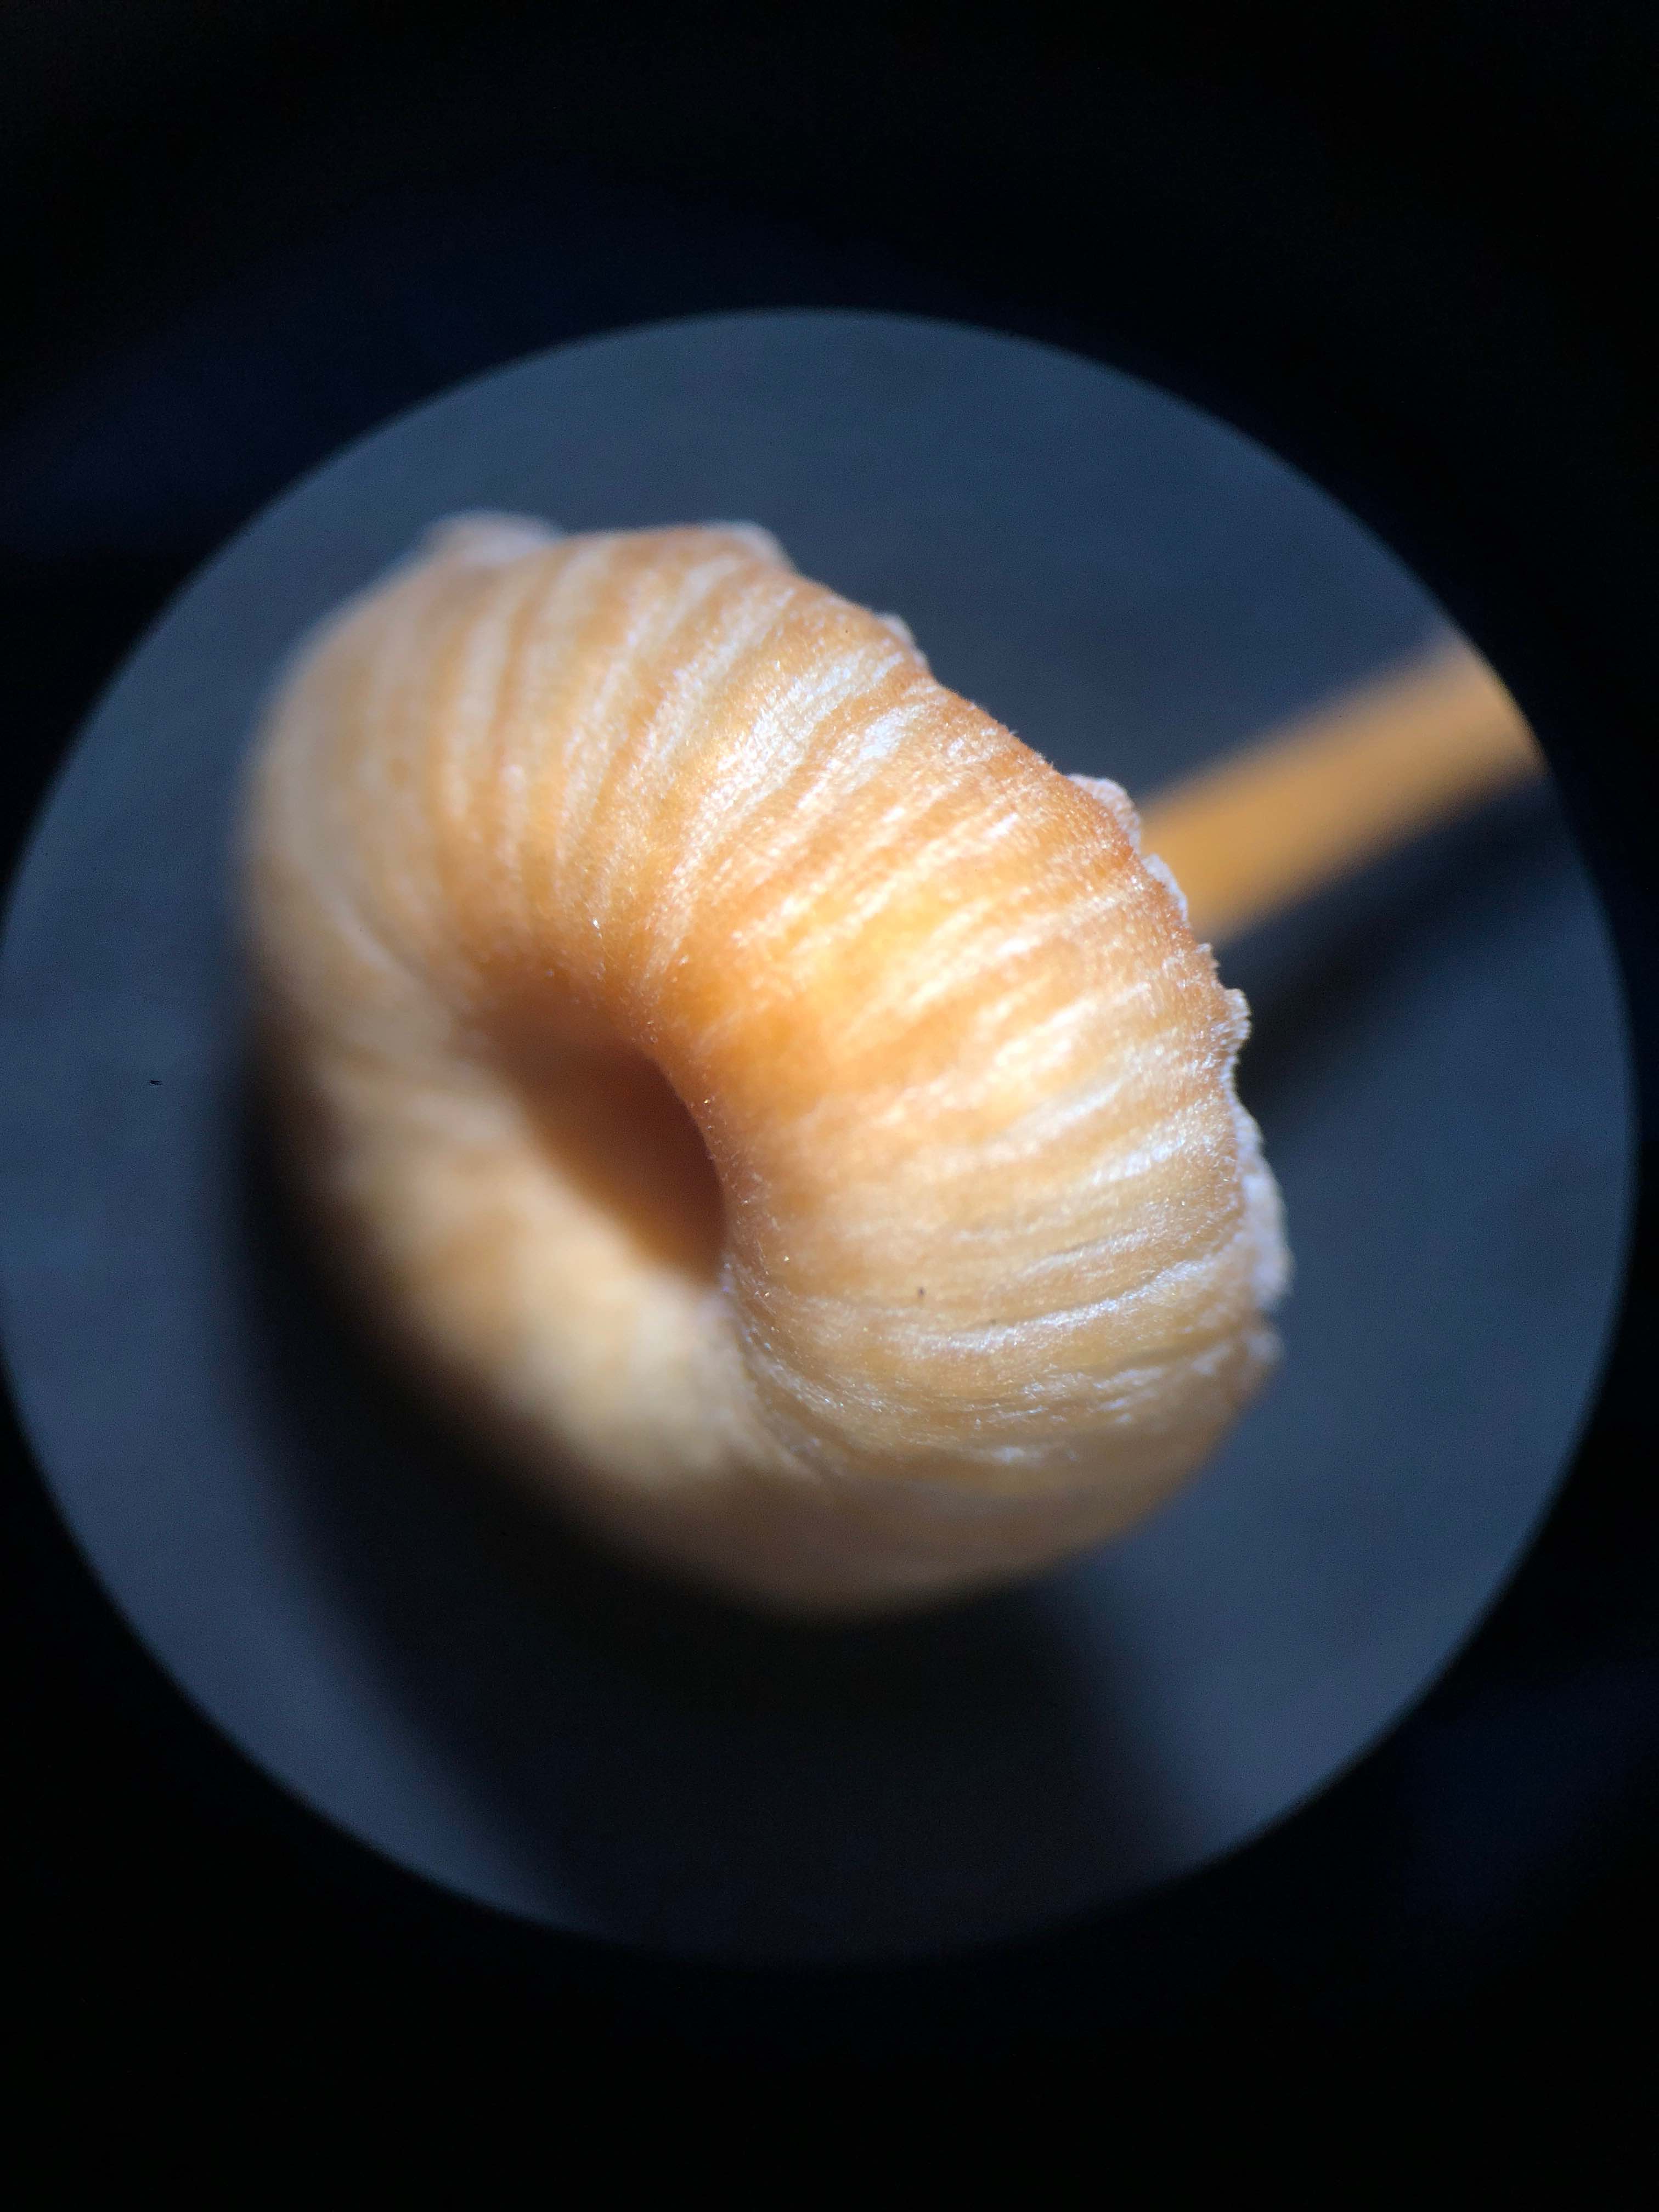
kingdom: Fungi
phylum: Basidiomycota
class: Agaricomycetes
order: Hymenochaetales
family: Rickenellaceae
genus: Rickenella
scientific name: Rickenella fibula
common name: orange mosnavlehat
